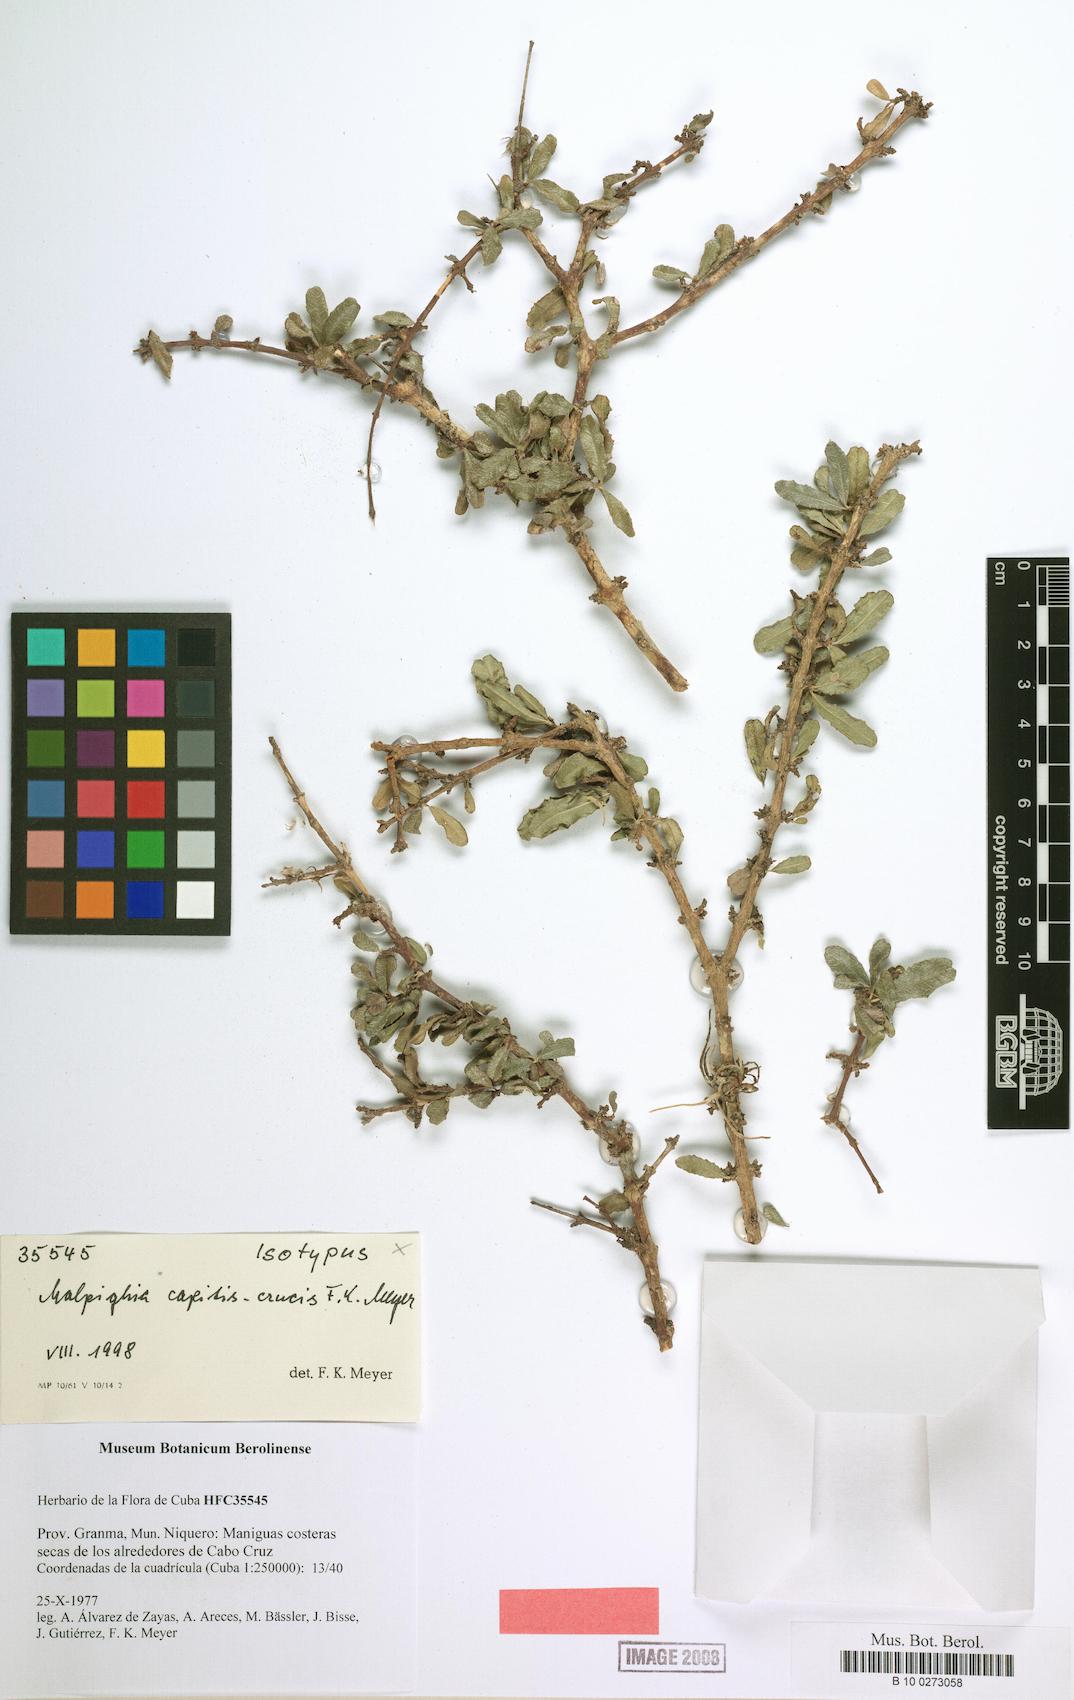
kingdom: Plantae
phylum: Tracheophyta
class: Magnoliopsida
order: Malpighiales
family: Malpighiaceae
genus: Malpighia
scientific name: Malpighia setosa
